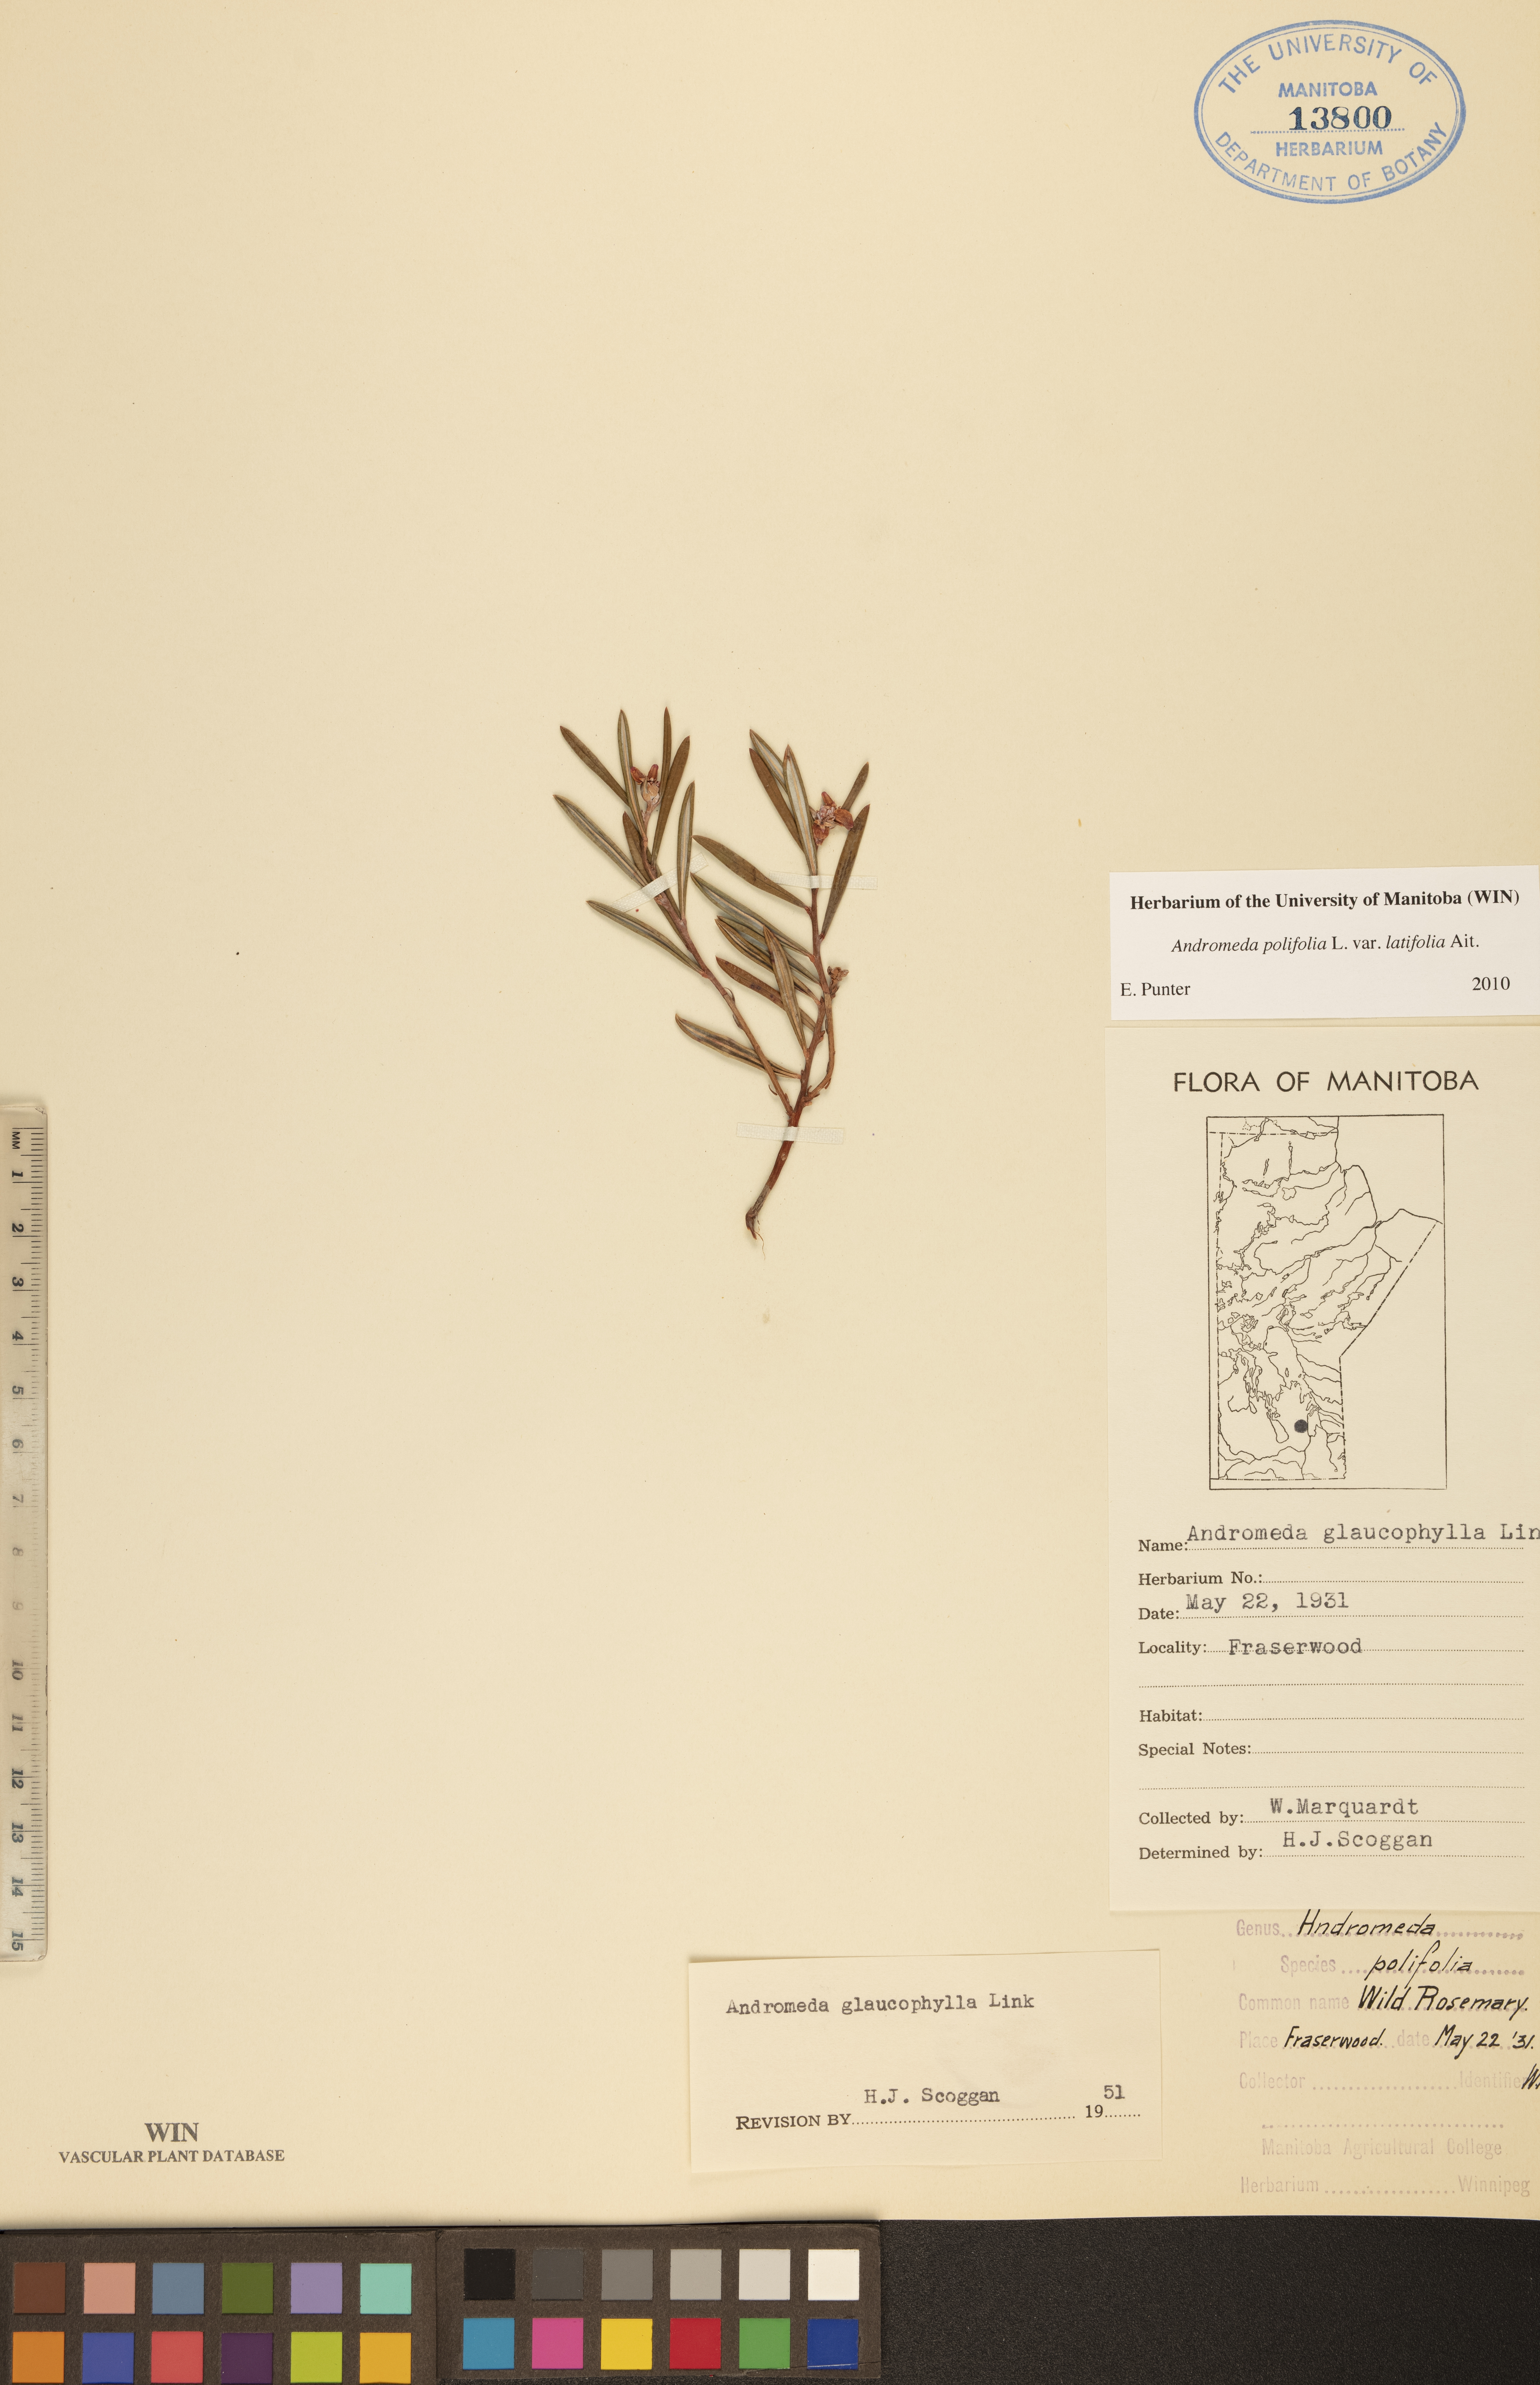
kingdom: Plantae
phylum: Tracheophyta
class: Magnoliopsida
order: Ericales
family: Ericaceae
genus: Andromeda
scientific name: Andromeda polifolia
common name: Bog-rosemary
